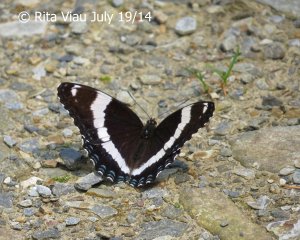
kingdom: Animalia
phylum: Arthropoda
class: Insecta
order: Lepidoptera
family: Nymphalidae
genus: Limenitis
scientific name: Limenitis arthemis
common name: Red-spotted Admiral
